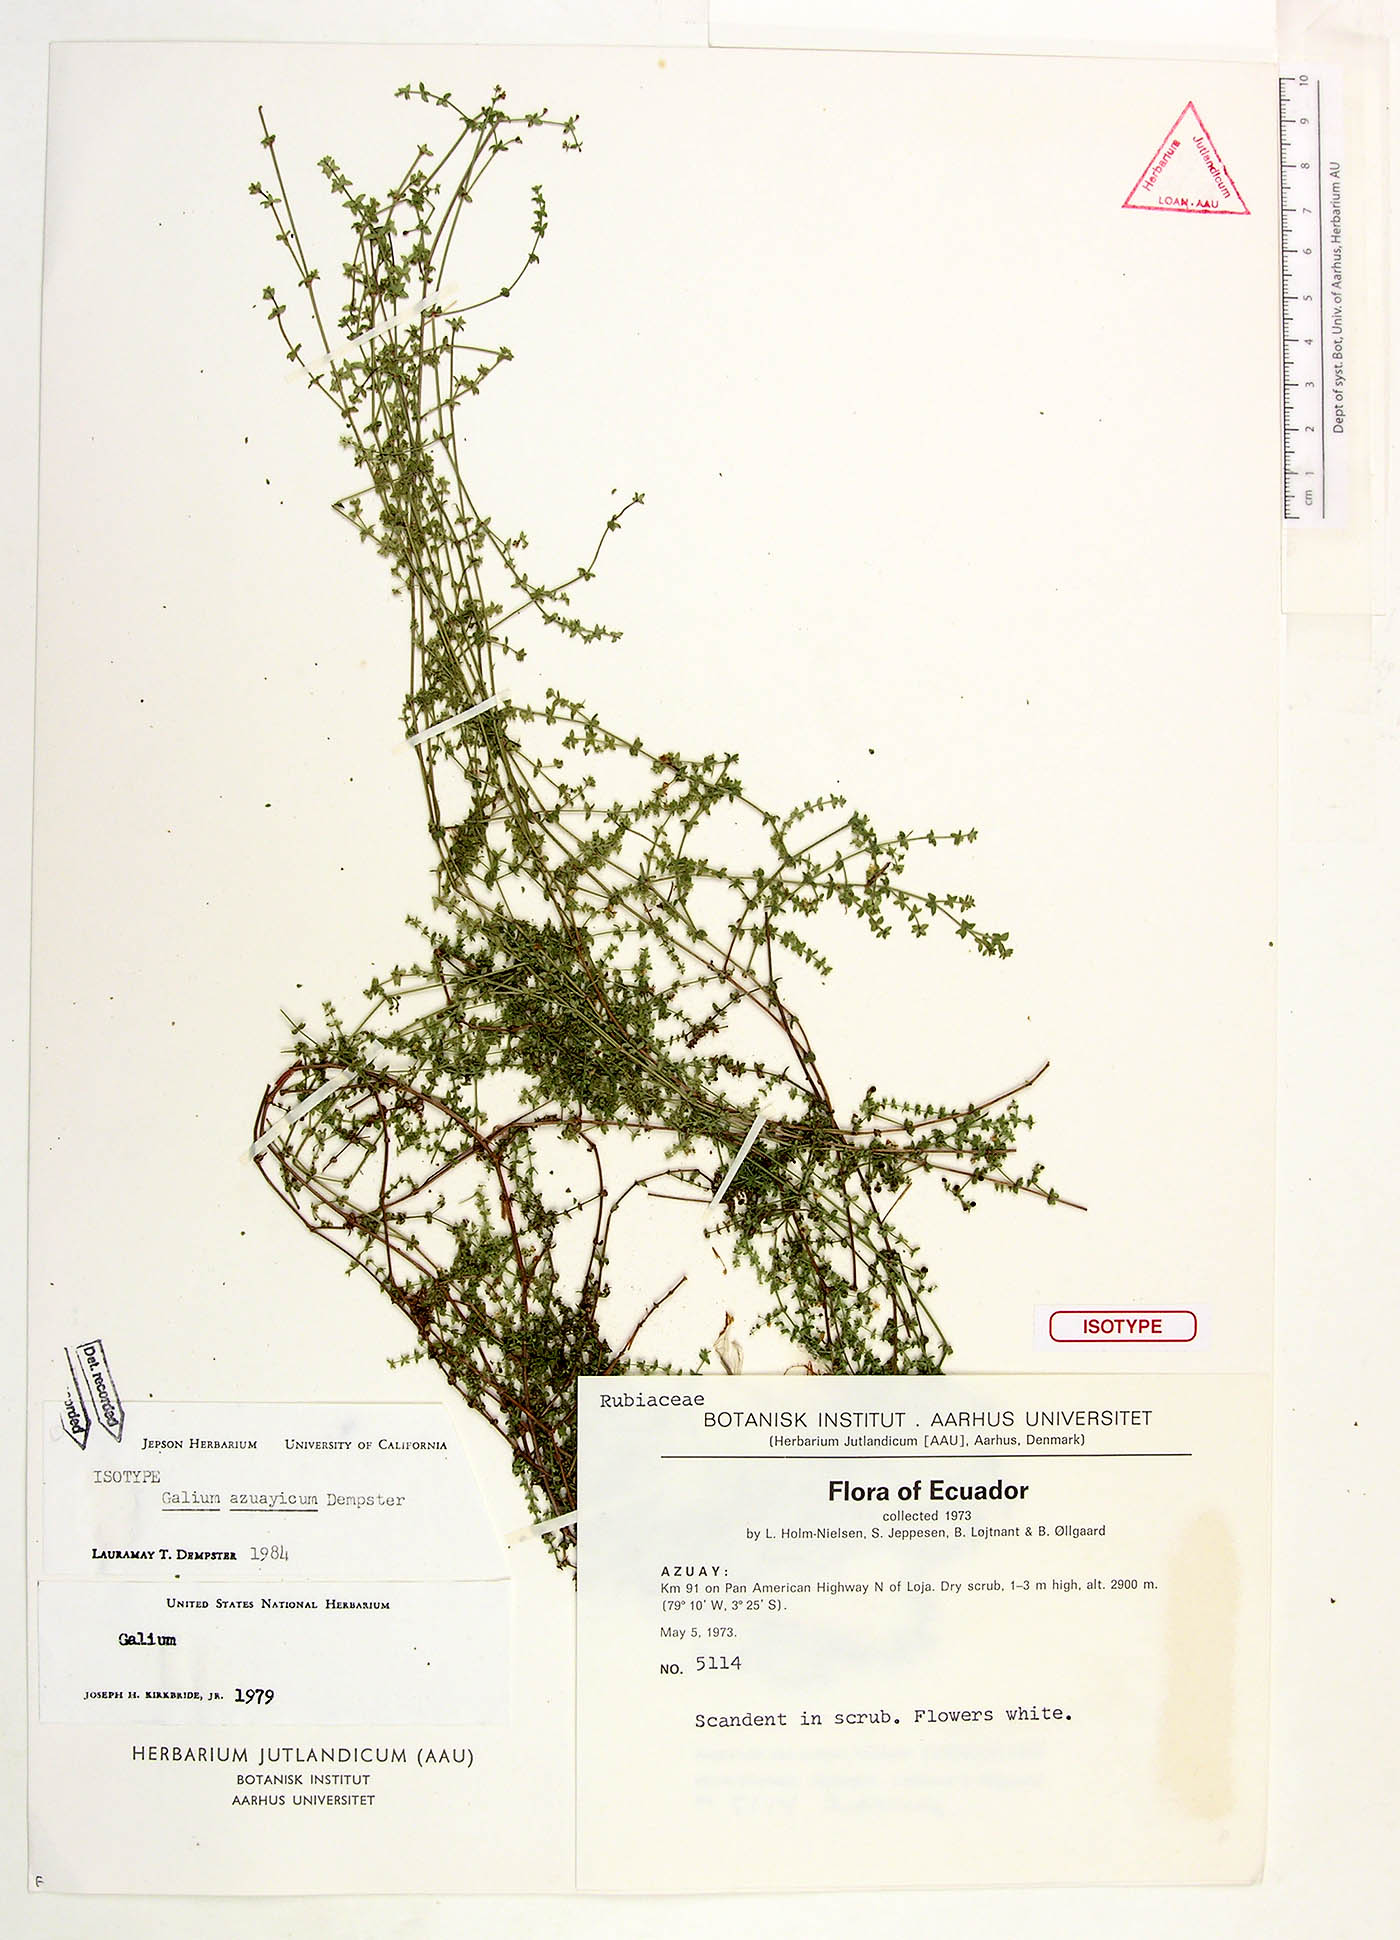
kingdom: Plantae
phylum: Tracheophyta
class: Magnoliopsida
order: Gentianales
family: Rubiaceae
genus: Galium
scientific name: Galium azuayicum
